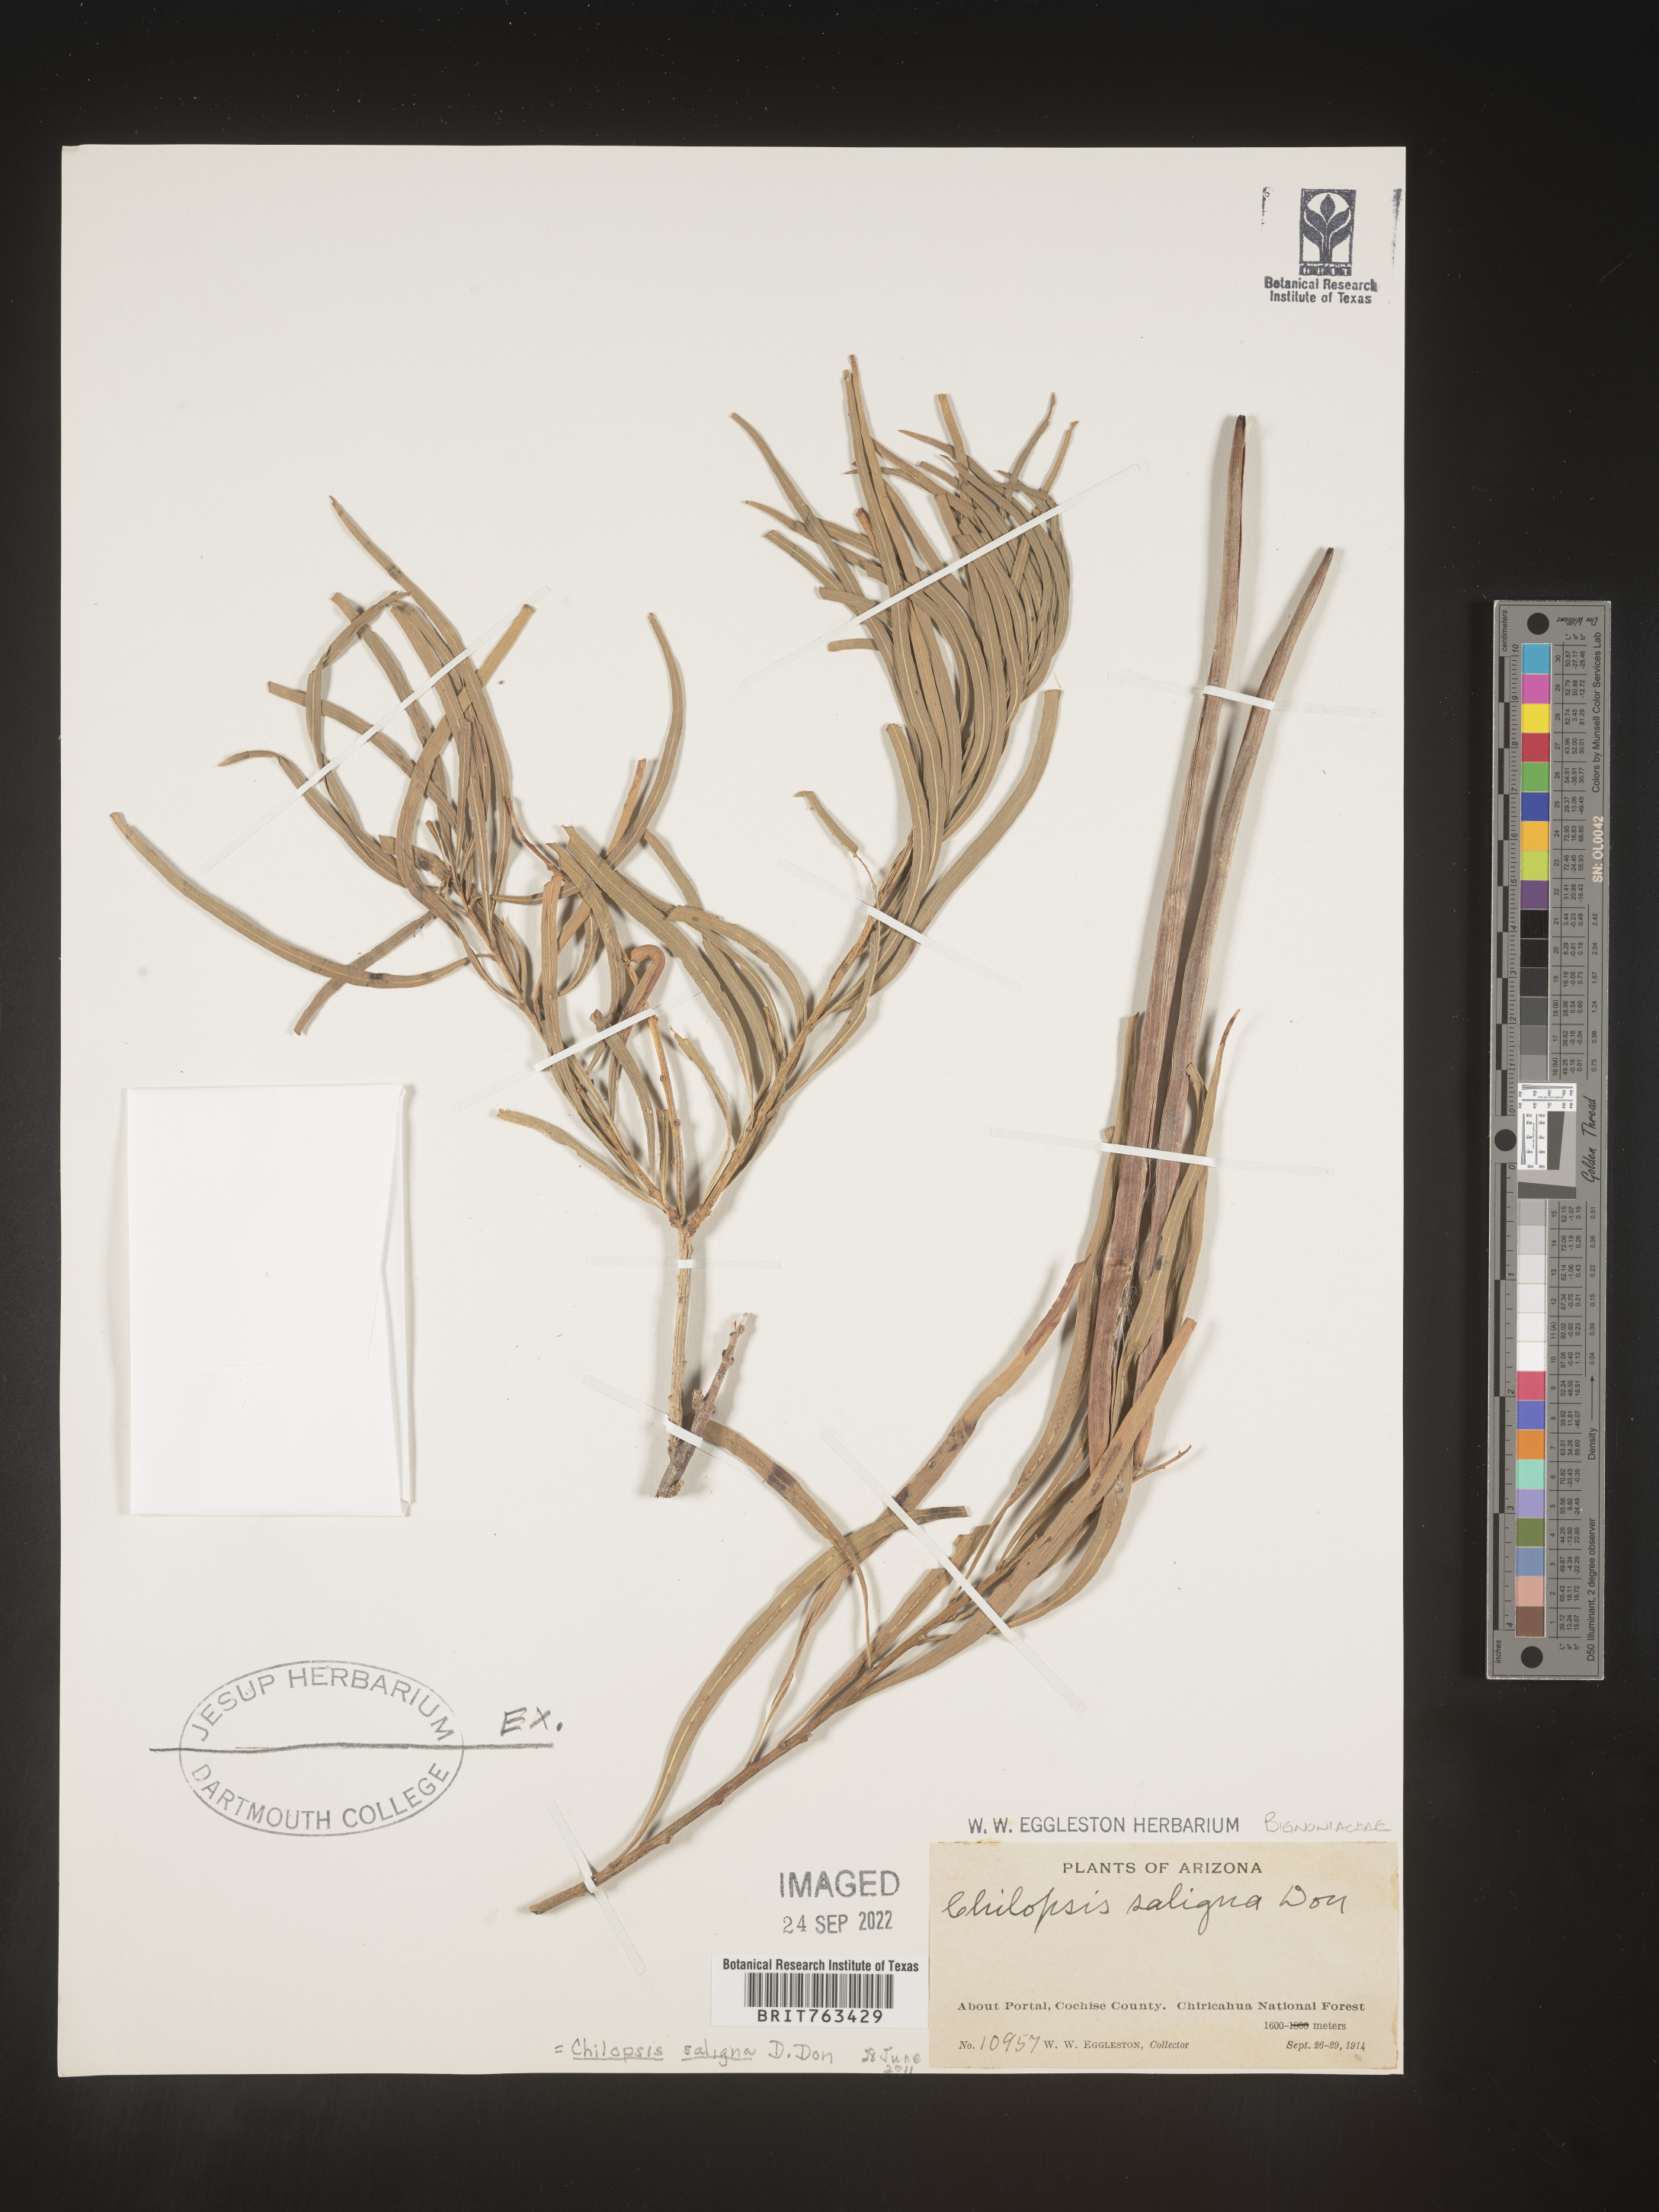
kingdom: Plantae
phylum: Tracheophyta
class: Magnoliopsida
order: Lamiales
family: Bignoniaceae
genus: Chilopsis
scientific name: Chilopsis linearis
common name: Desert-willow
